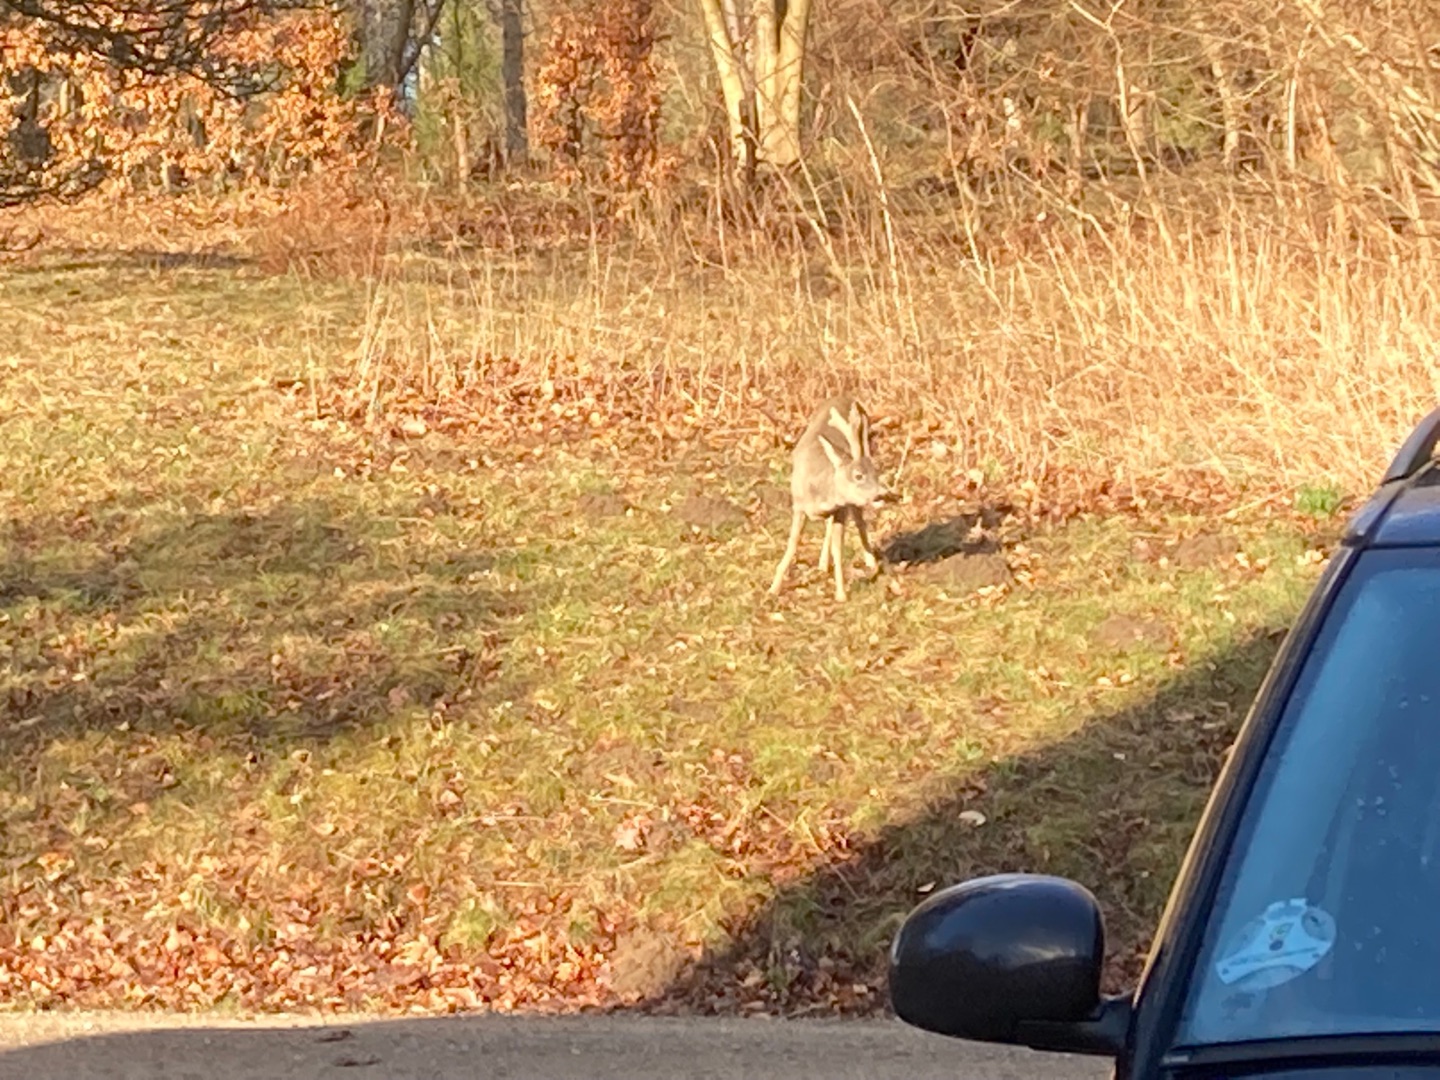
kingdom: Animalia
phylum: Chordata
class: Mammalia
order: Artiodactyla
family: Cervidae
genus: Capreolus
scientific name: Capreolus capreolus
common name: Rådyr
